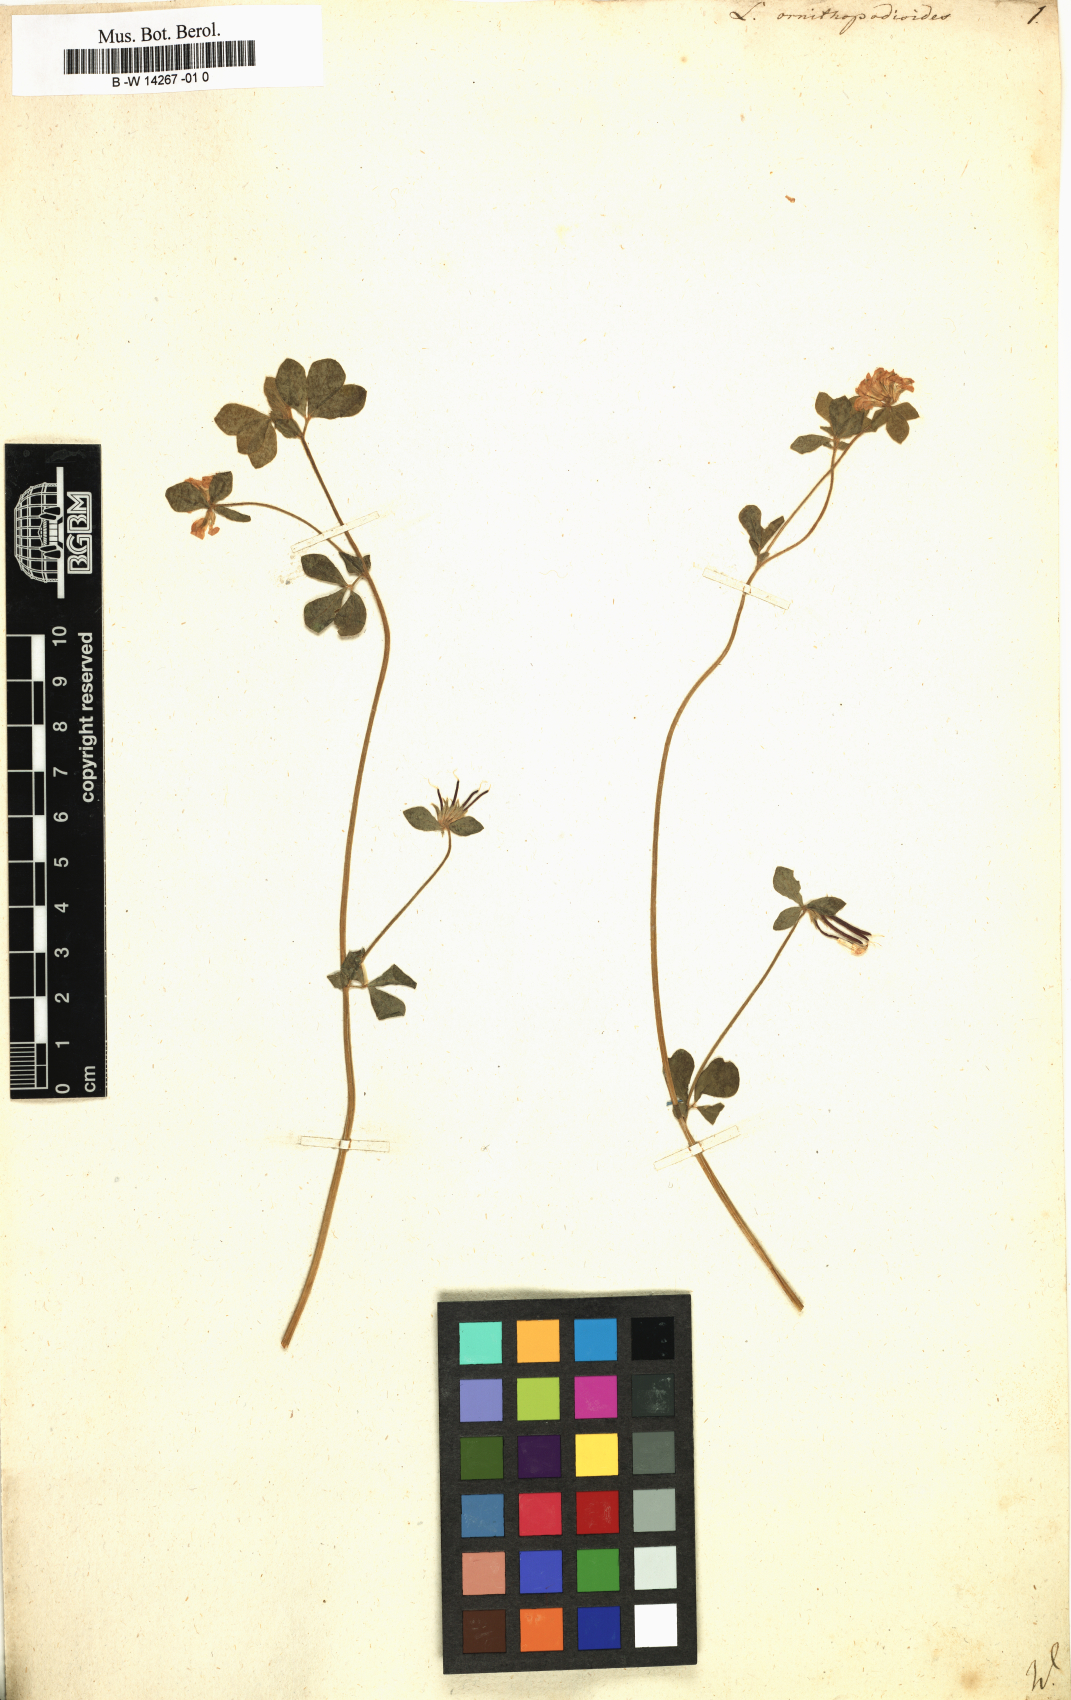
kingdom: Plantae
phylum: Tracheophyta
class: Magnoliopsida
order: Fabales
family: Fabaceae
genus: Lotus
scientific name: Lotus ornithopodioides
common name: Southern bird's-foot trefoil
